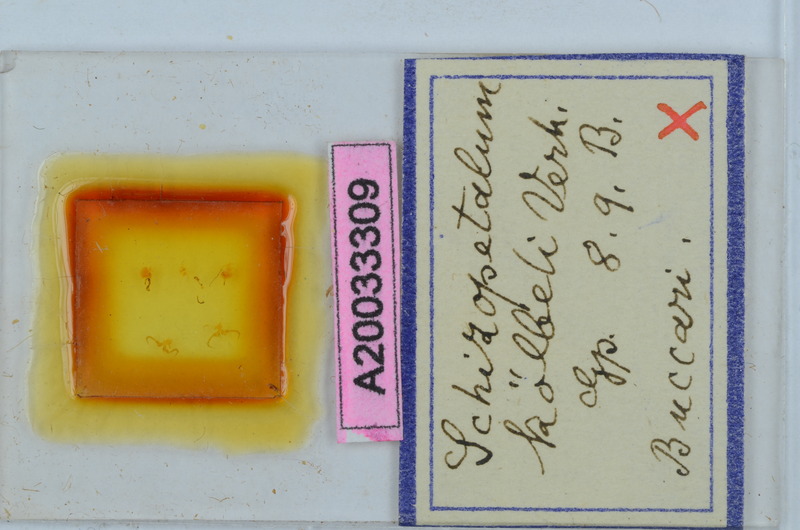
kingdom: Animalia
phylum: Arthropoda
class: Diplopoda
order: Callipodida
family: Schizopetalidae
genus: Schizopetalum
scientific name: Schizopetalum koelbeli
